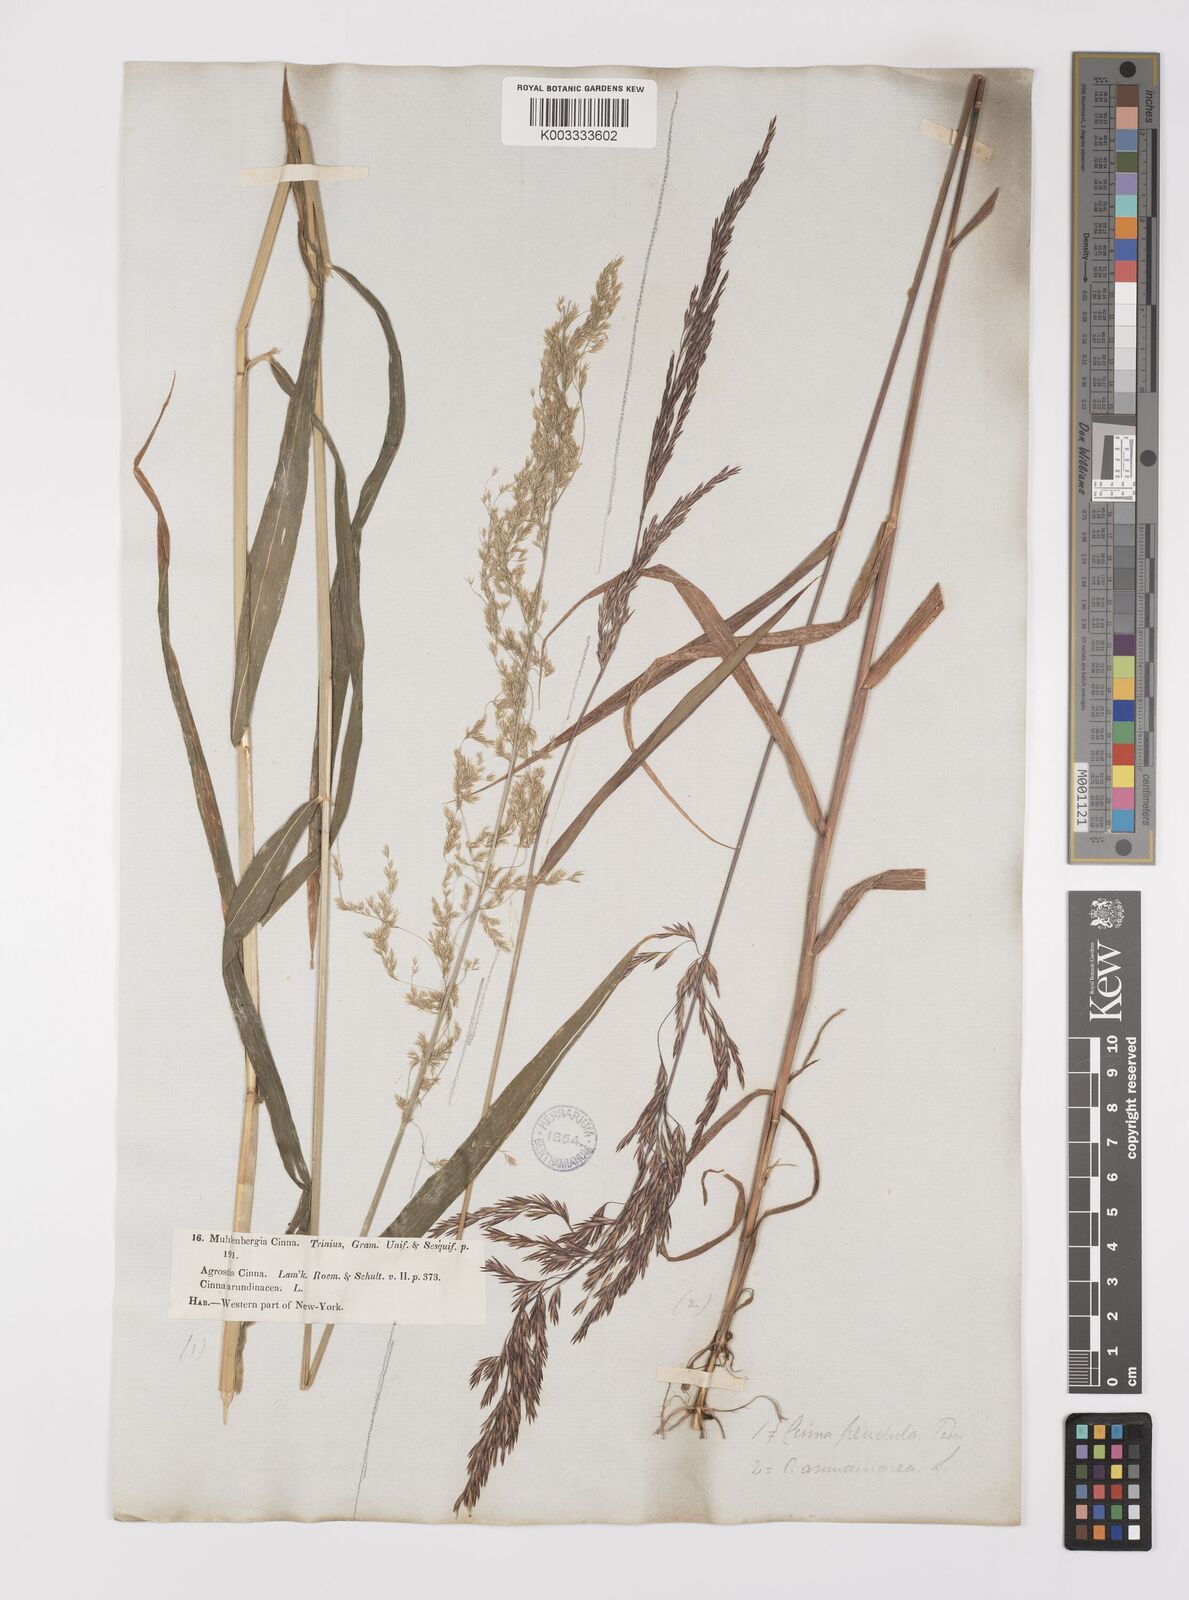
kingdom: Plantae
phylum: Tracheophyta
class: Liliopsida
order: Poales
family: Poaceae
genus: Cinna
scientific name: Cinna latifolia
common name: Drooping woodreed
